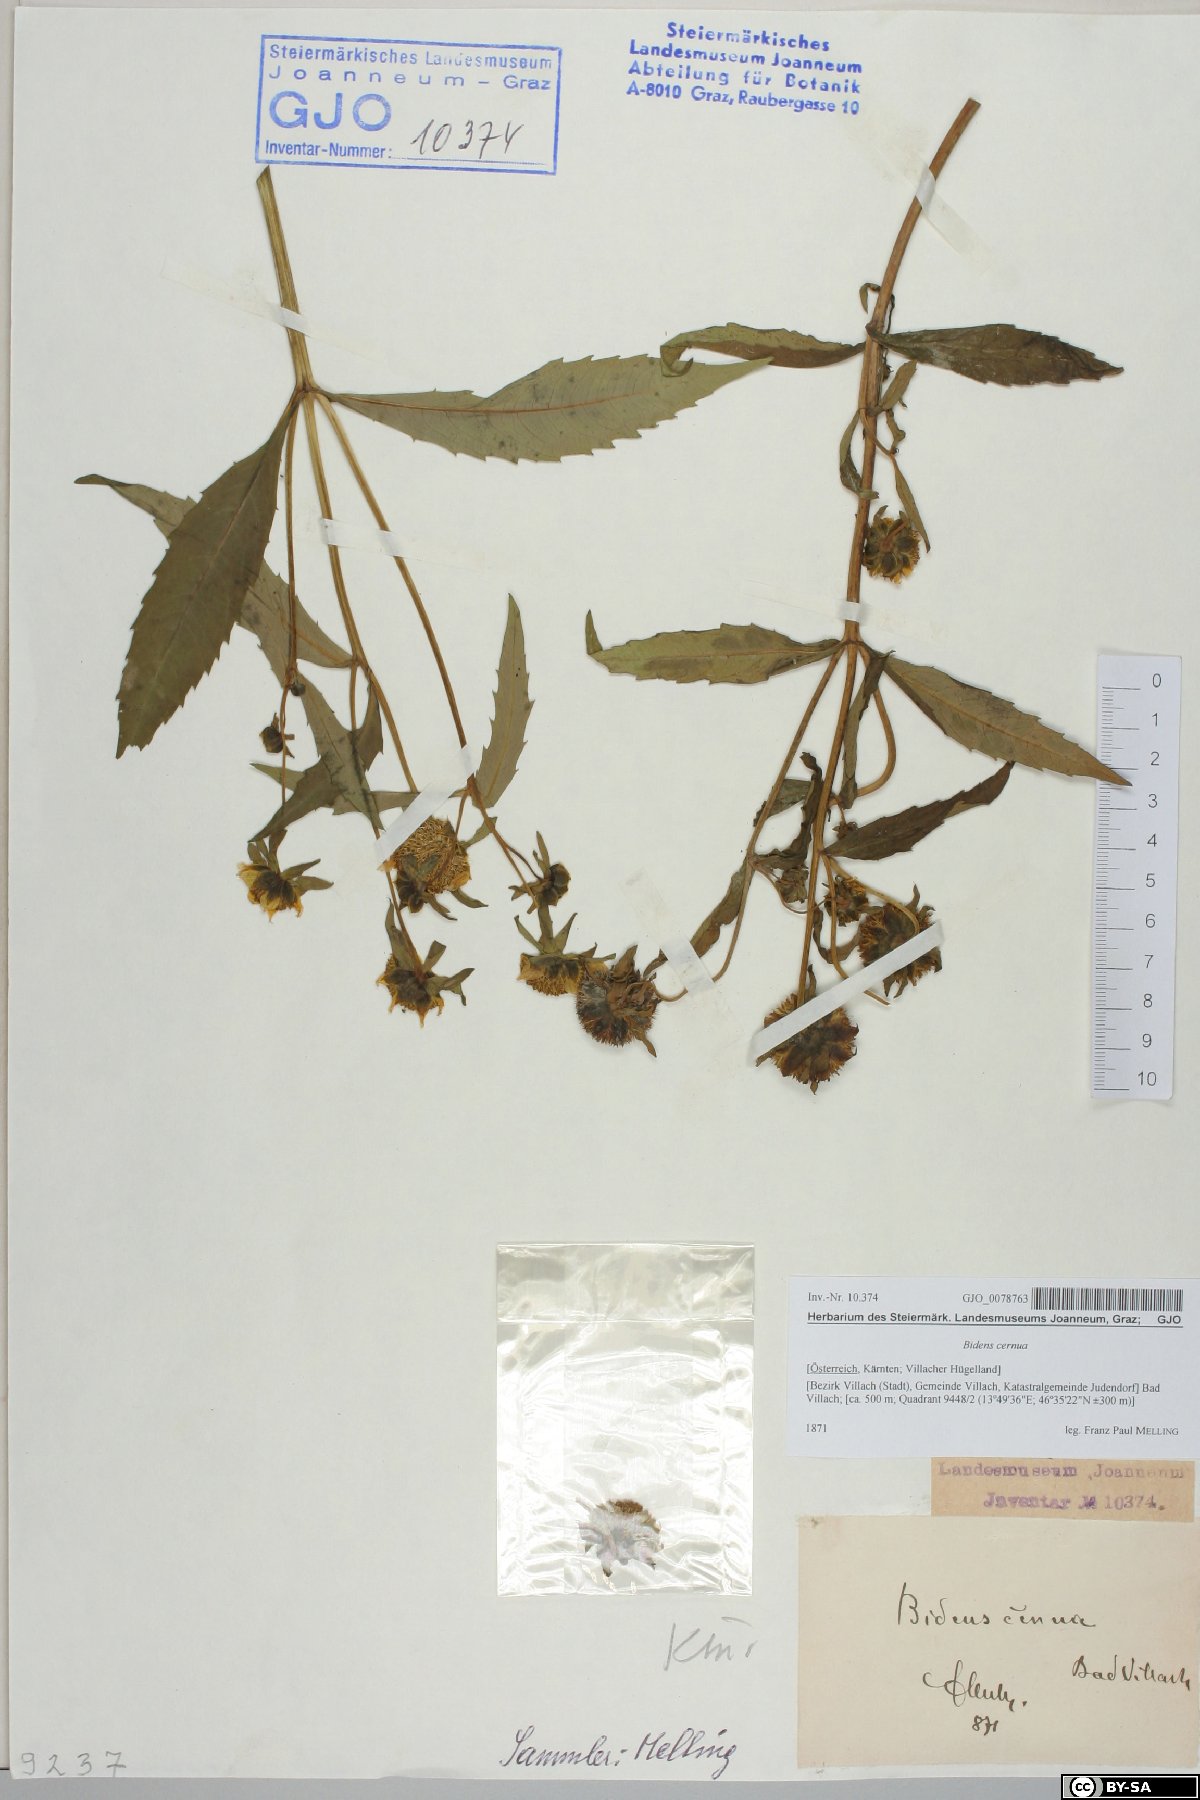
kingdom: Plantae
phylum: Tracheophyta
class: Magnoliopsida
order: Asterales
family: Asteraceae
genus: Bidens
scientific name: Bidens cernua
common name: Nodding bur-marigold
